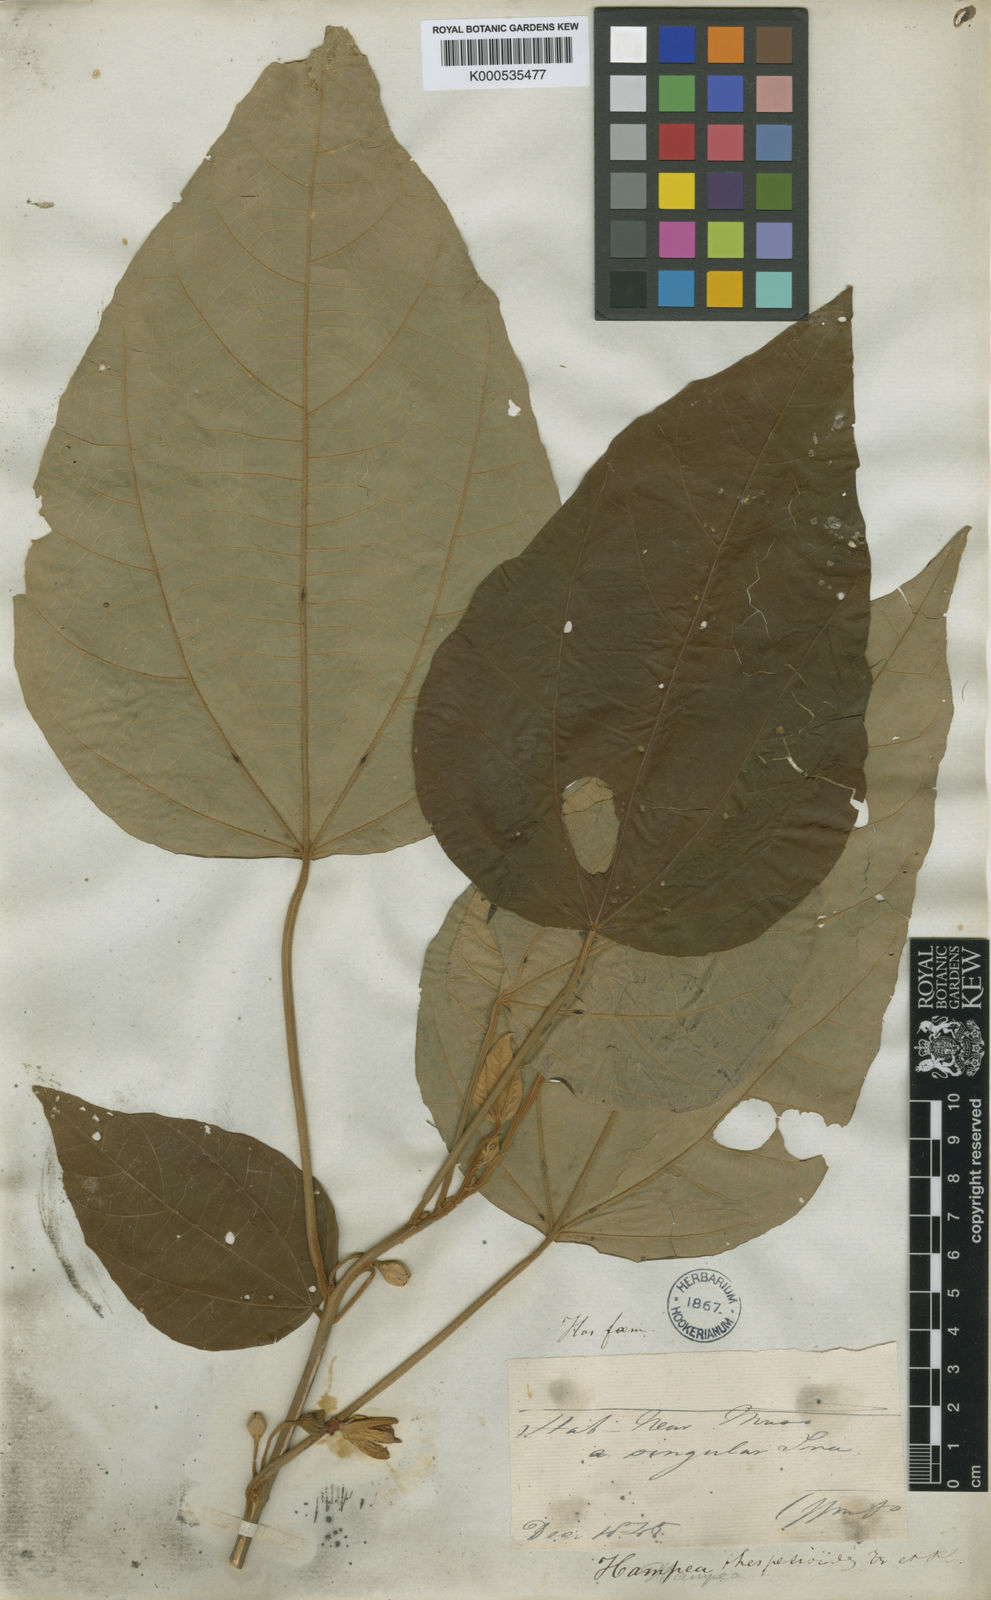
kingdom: Plantae
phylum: Tracheophyta
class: Magnoliopsida
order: Malvales
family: Malvaceae
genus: Hampea
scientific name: Hampea thespesioides
